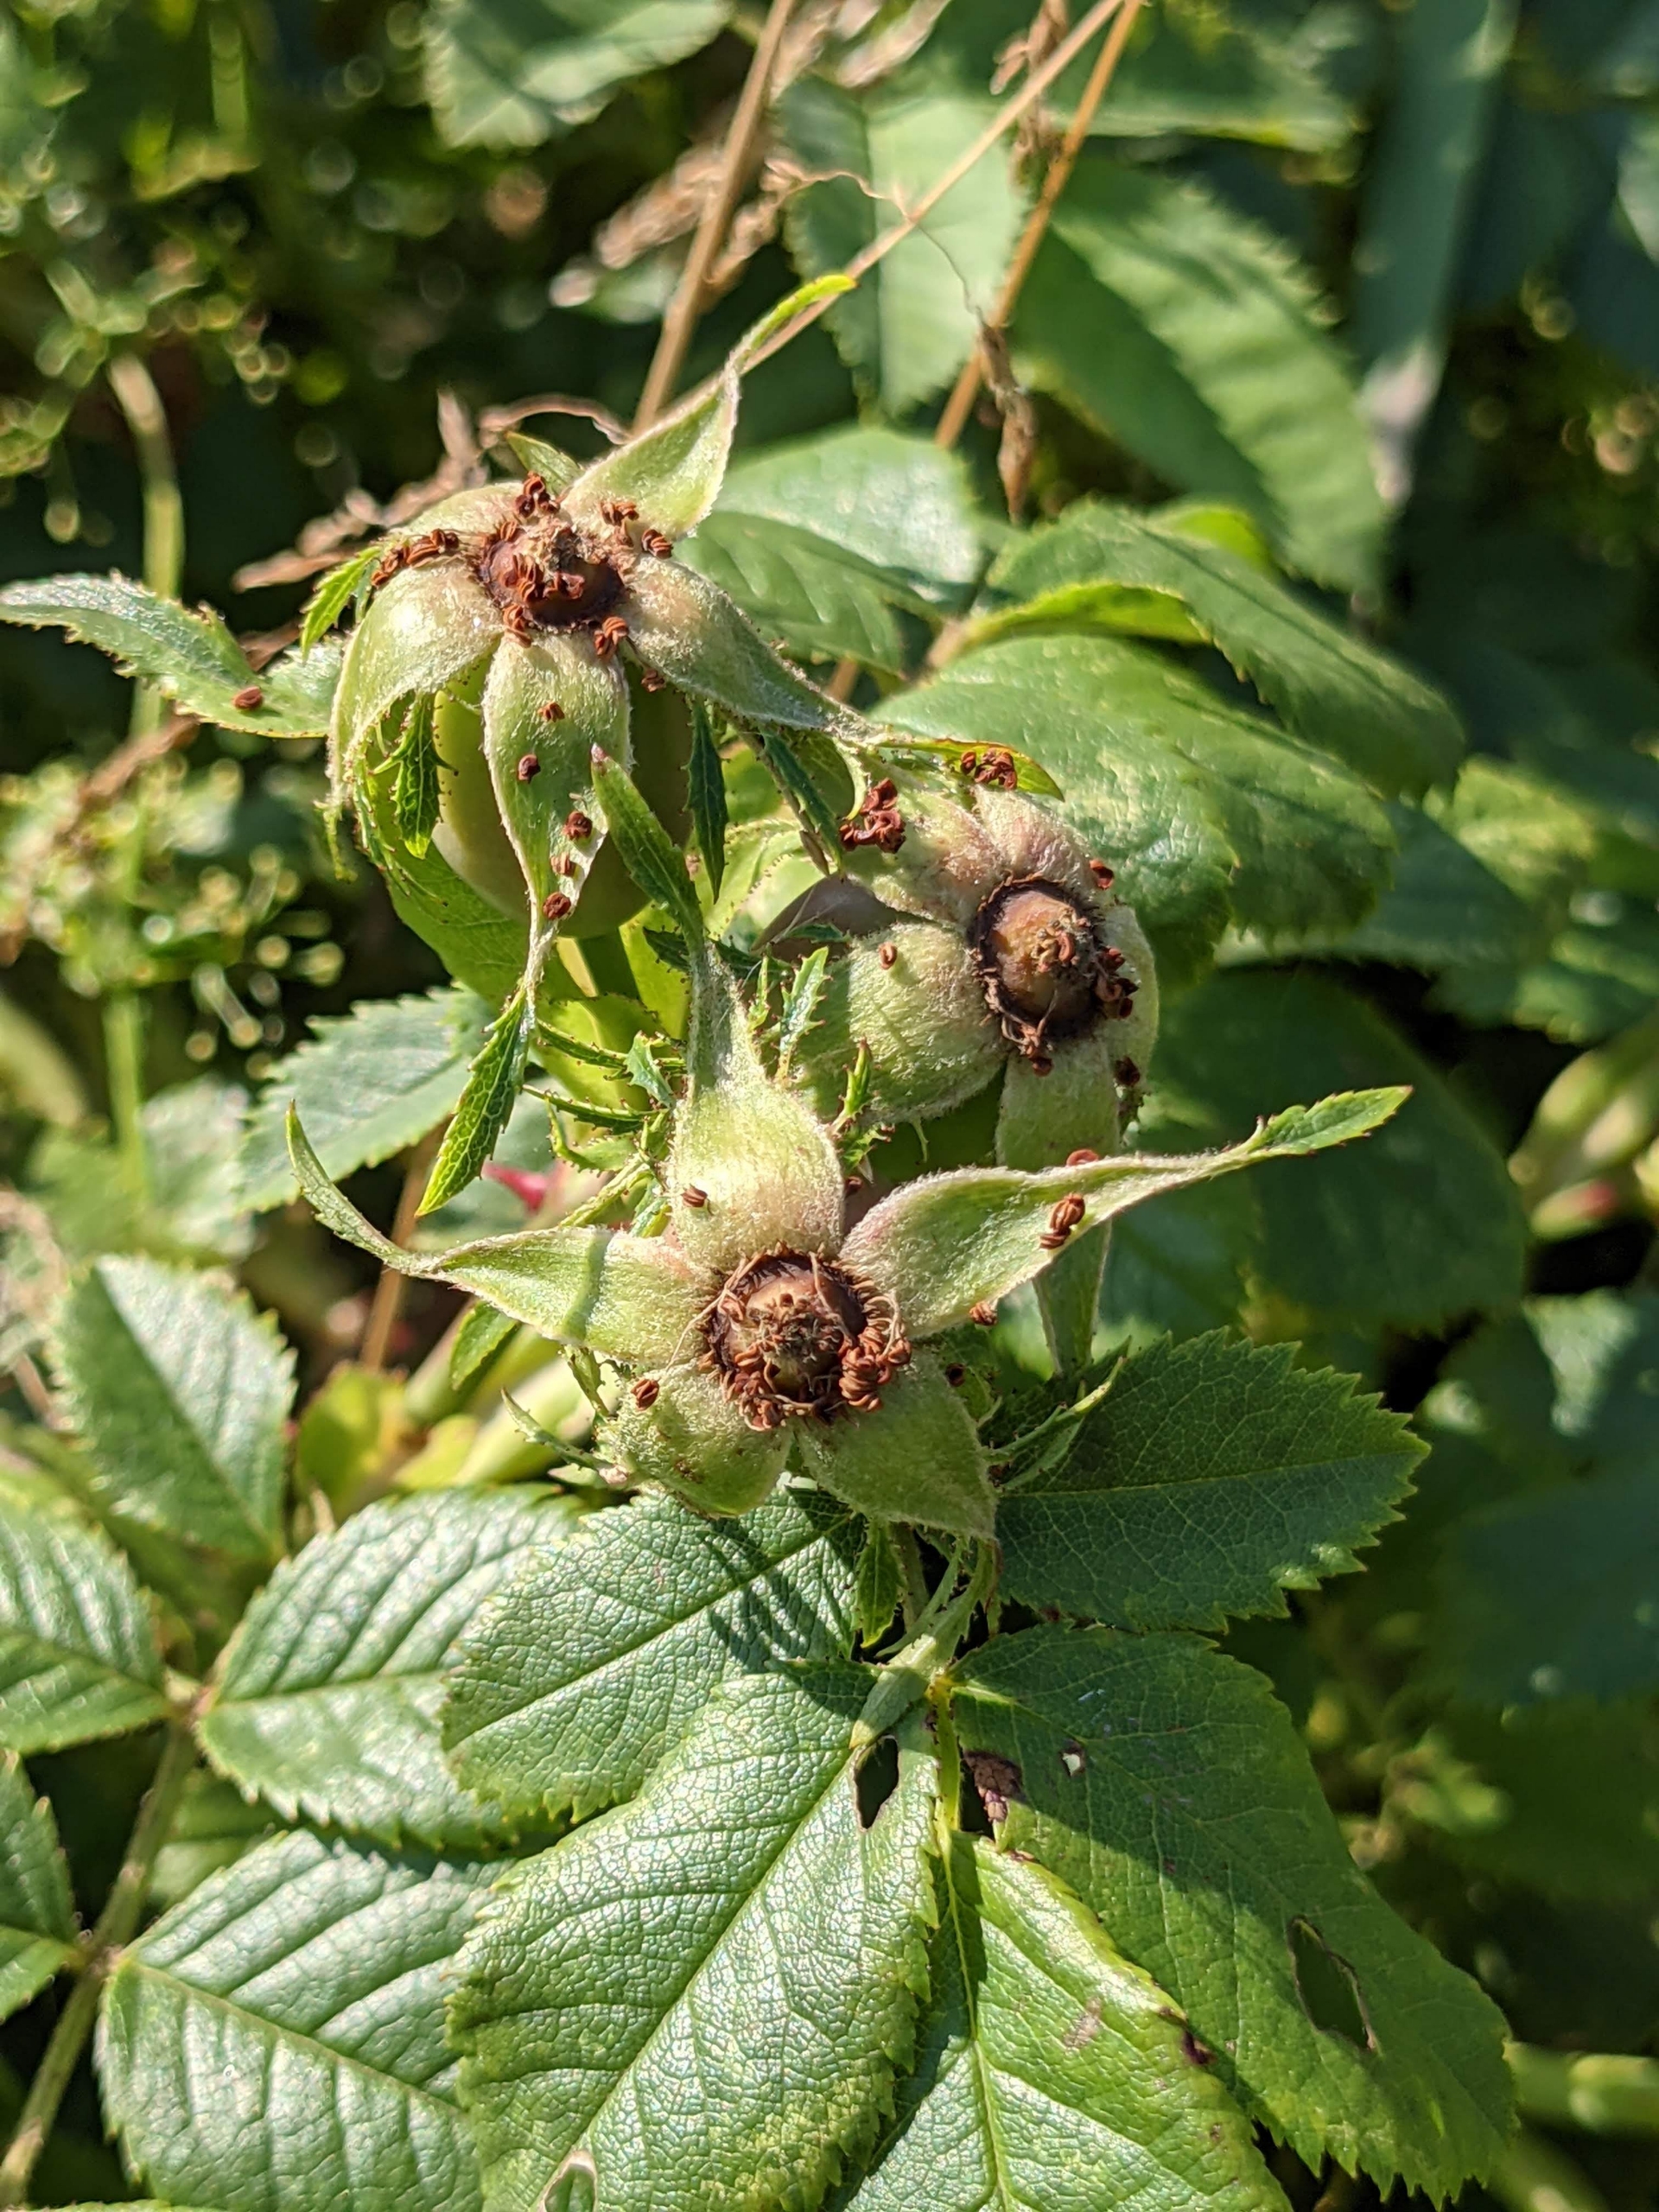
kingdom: Plantae
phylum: Tracheophyta
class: Magnoliopsida
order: Rosales
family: Rosaceae
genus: Rosa
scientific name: Rosa balsamica
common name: Rubladet rose
